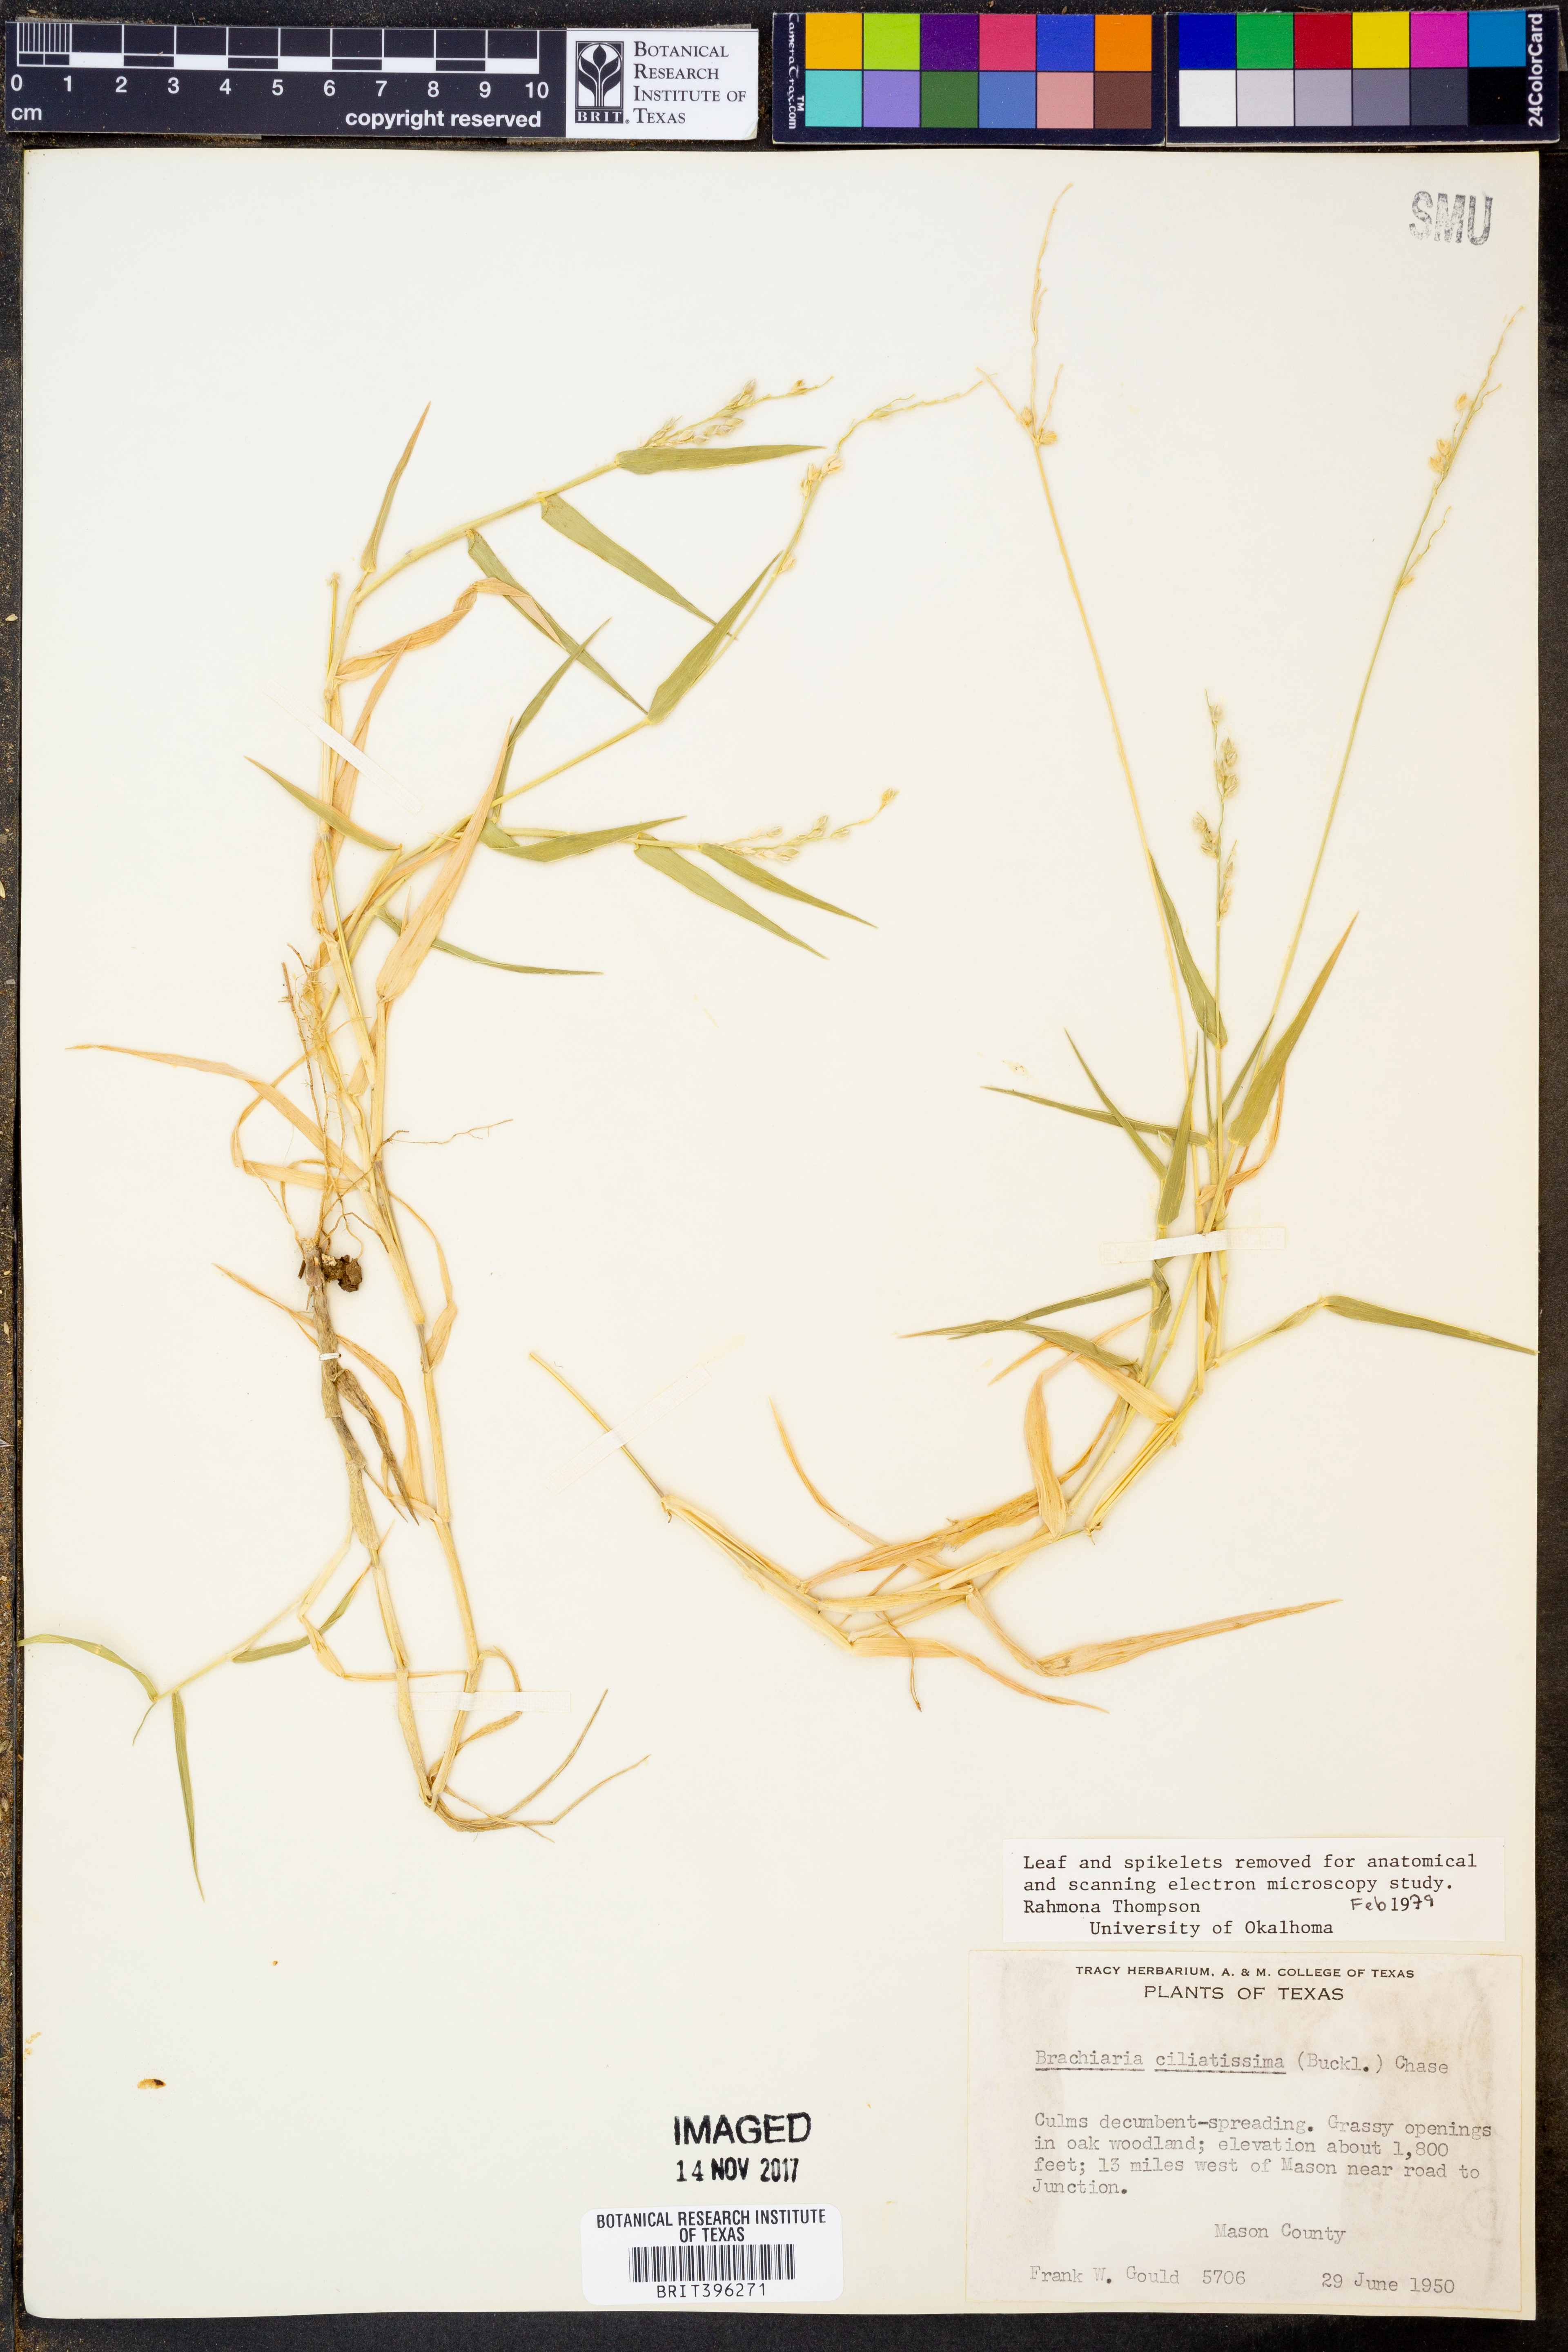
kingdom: Plantae
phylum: Tracheophyta
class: Liliopsida
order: Poales
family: Poaceae
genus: Urochloa
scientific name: Urochloa ciliatissima
